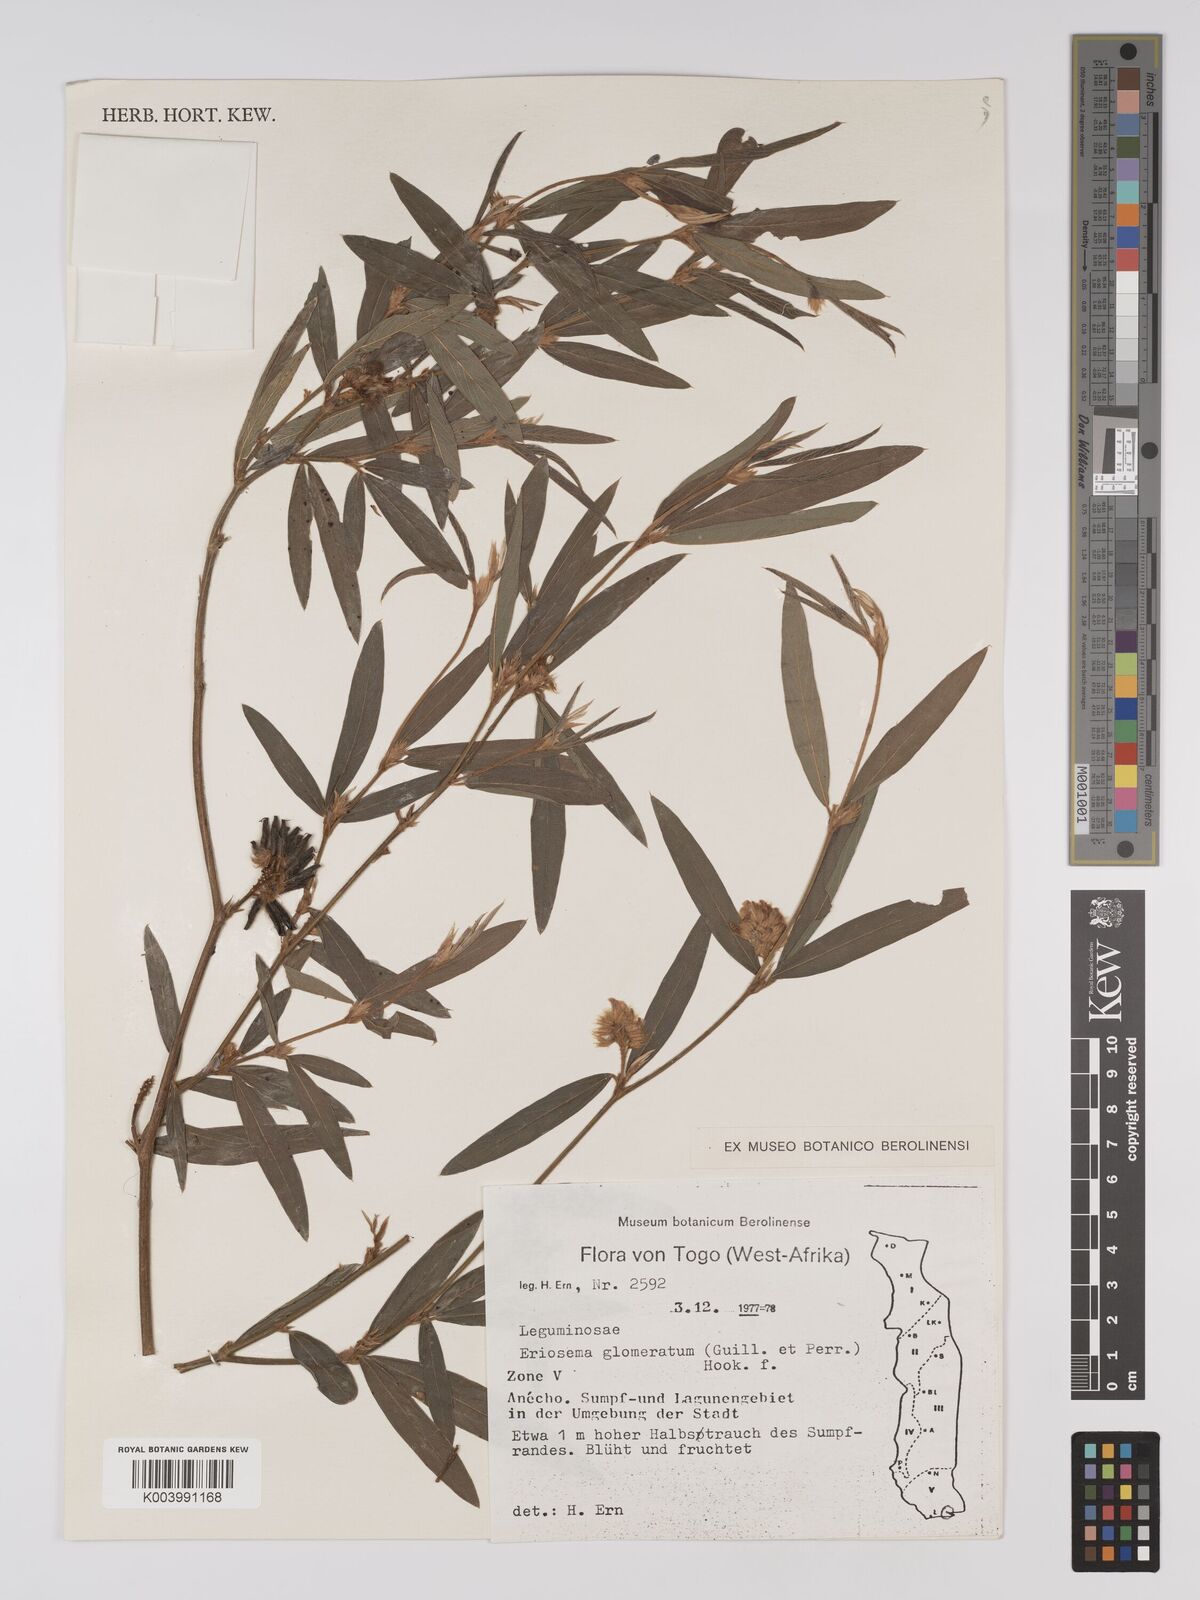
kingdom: Plantae
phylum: Tracheophyta
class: Magnoliopsida
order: Fabales
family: Fabaceae
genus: Eriosema
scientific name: Eriosema glomeratum
